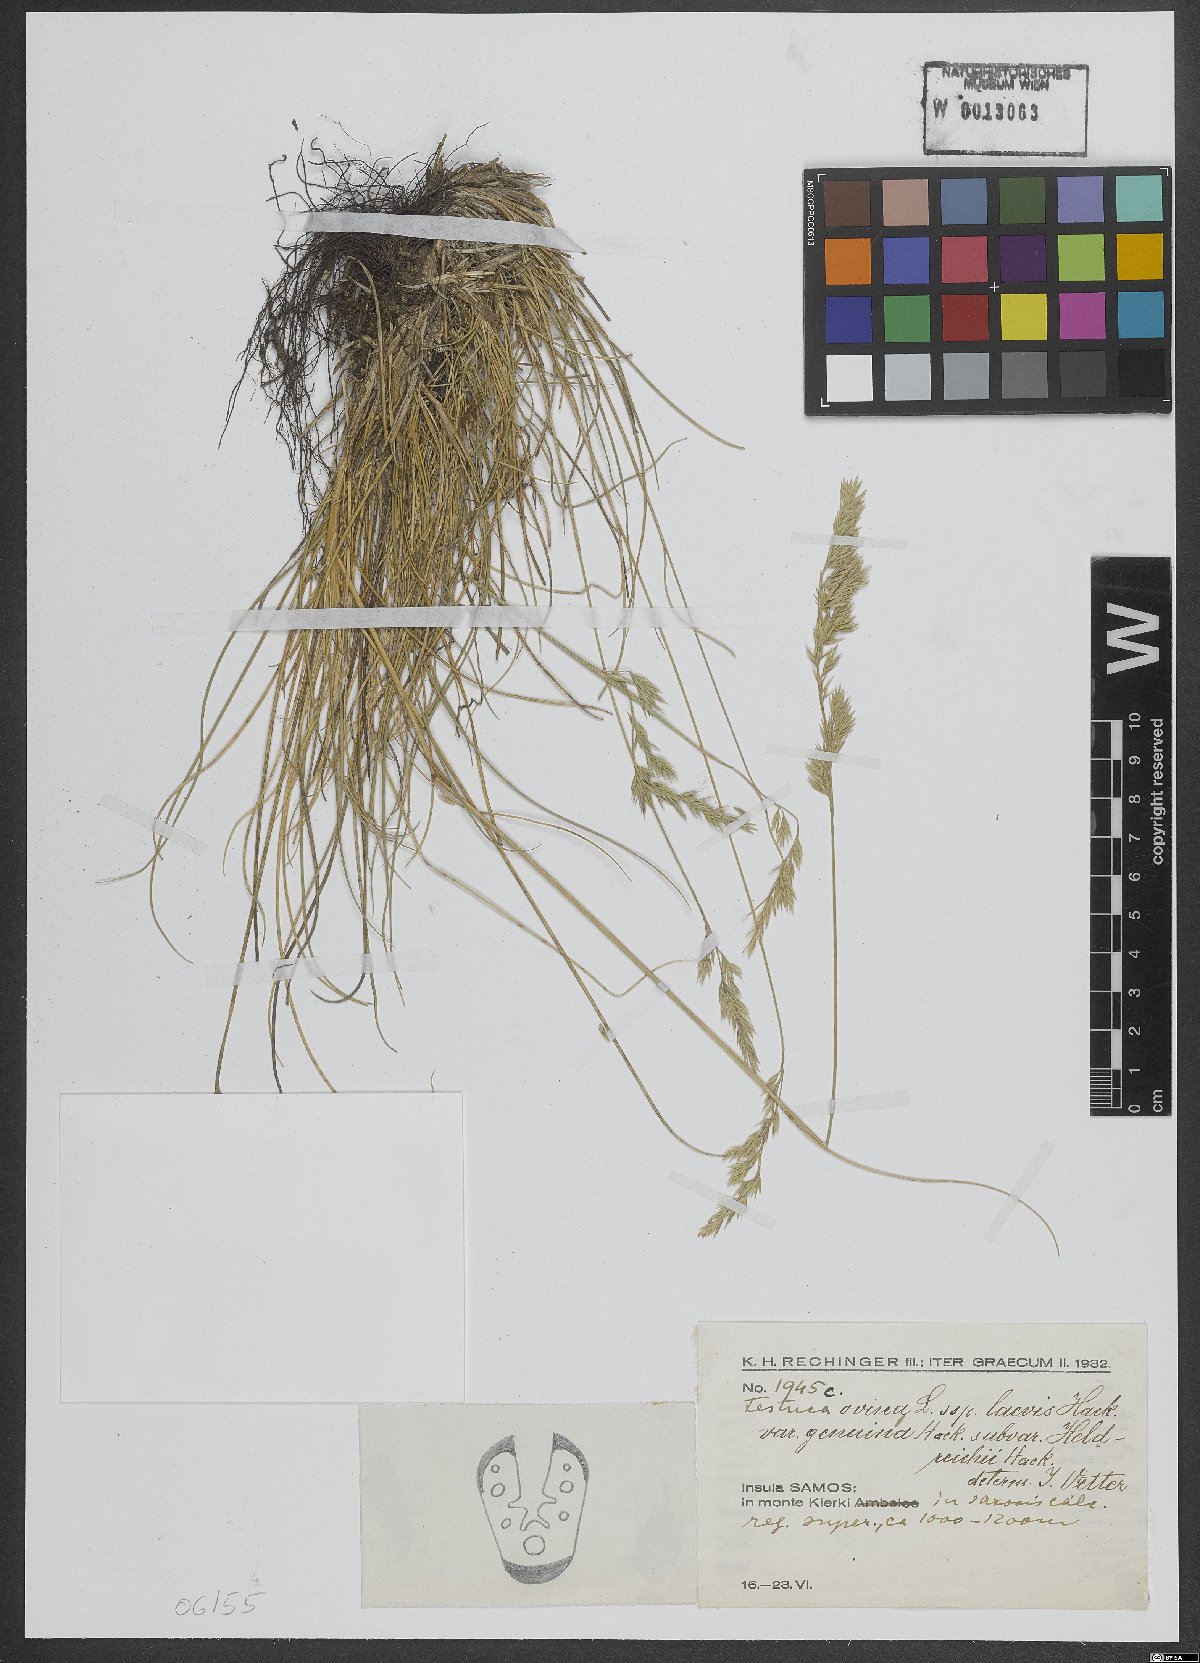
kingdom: Plantae
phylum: Tracheophyta
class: Liliopsida
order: Poales
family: Poaceae
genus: Festuca
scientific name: Festuca circummediterranea
